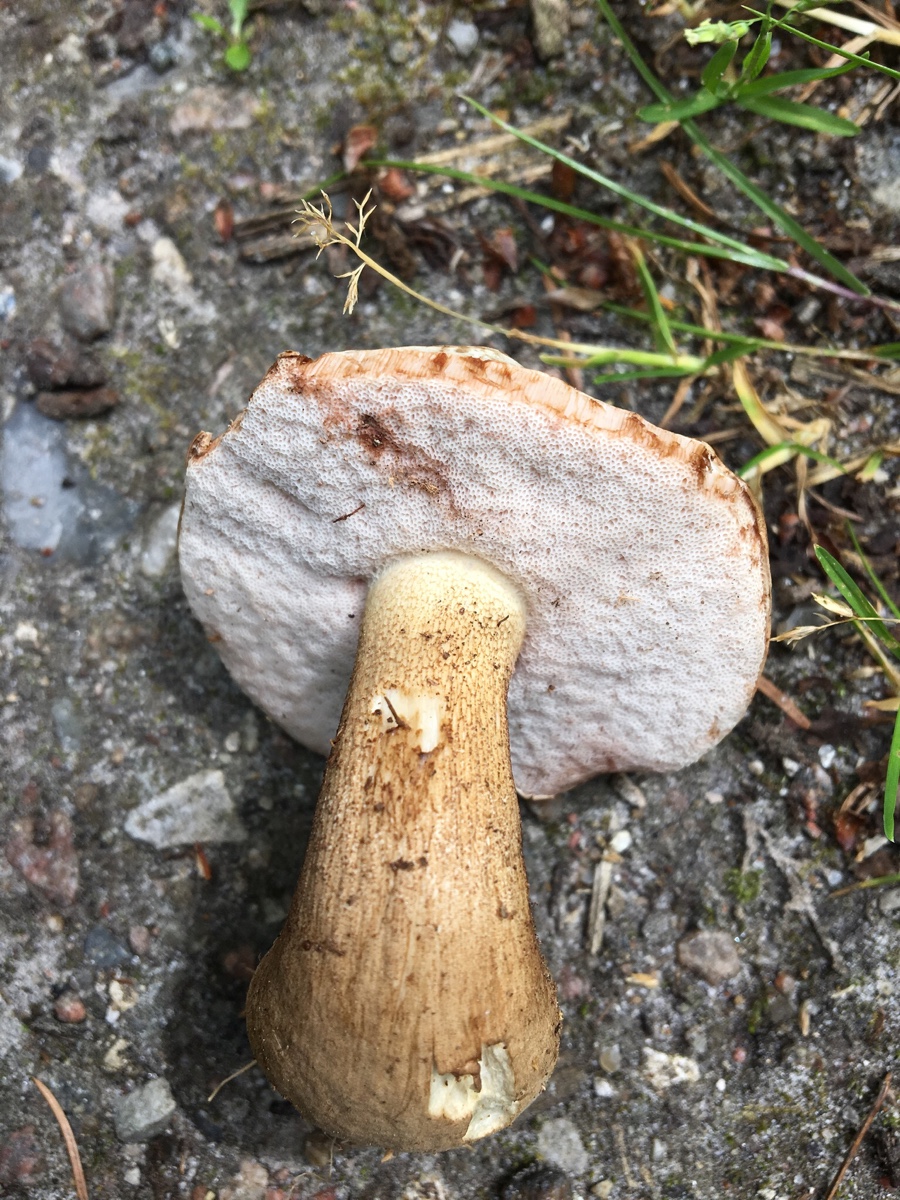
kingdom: Fungi
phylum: Basidiomycota
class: Agaricomycetes
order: Boletales
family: Boletaceae
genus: Tylopilus
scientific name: Tylopilus felleus
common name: galderørhat
